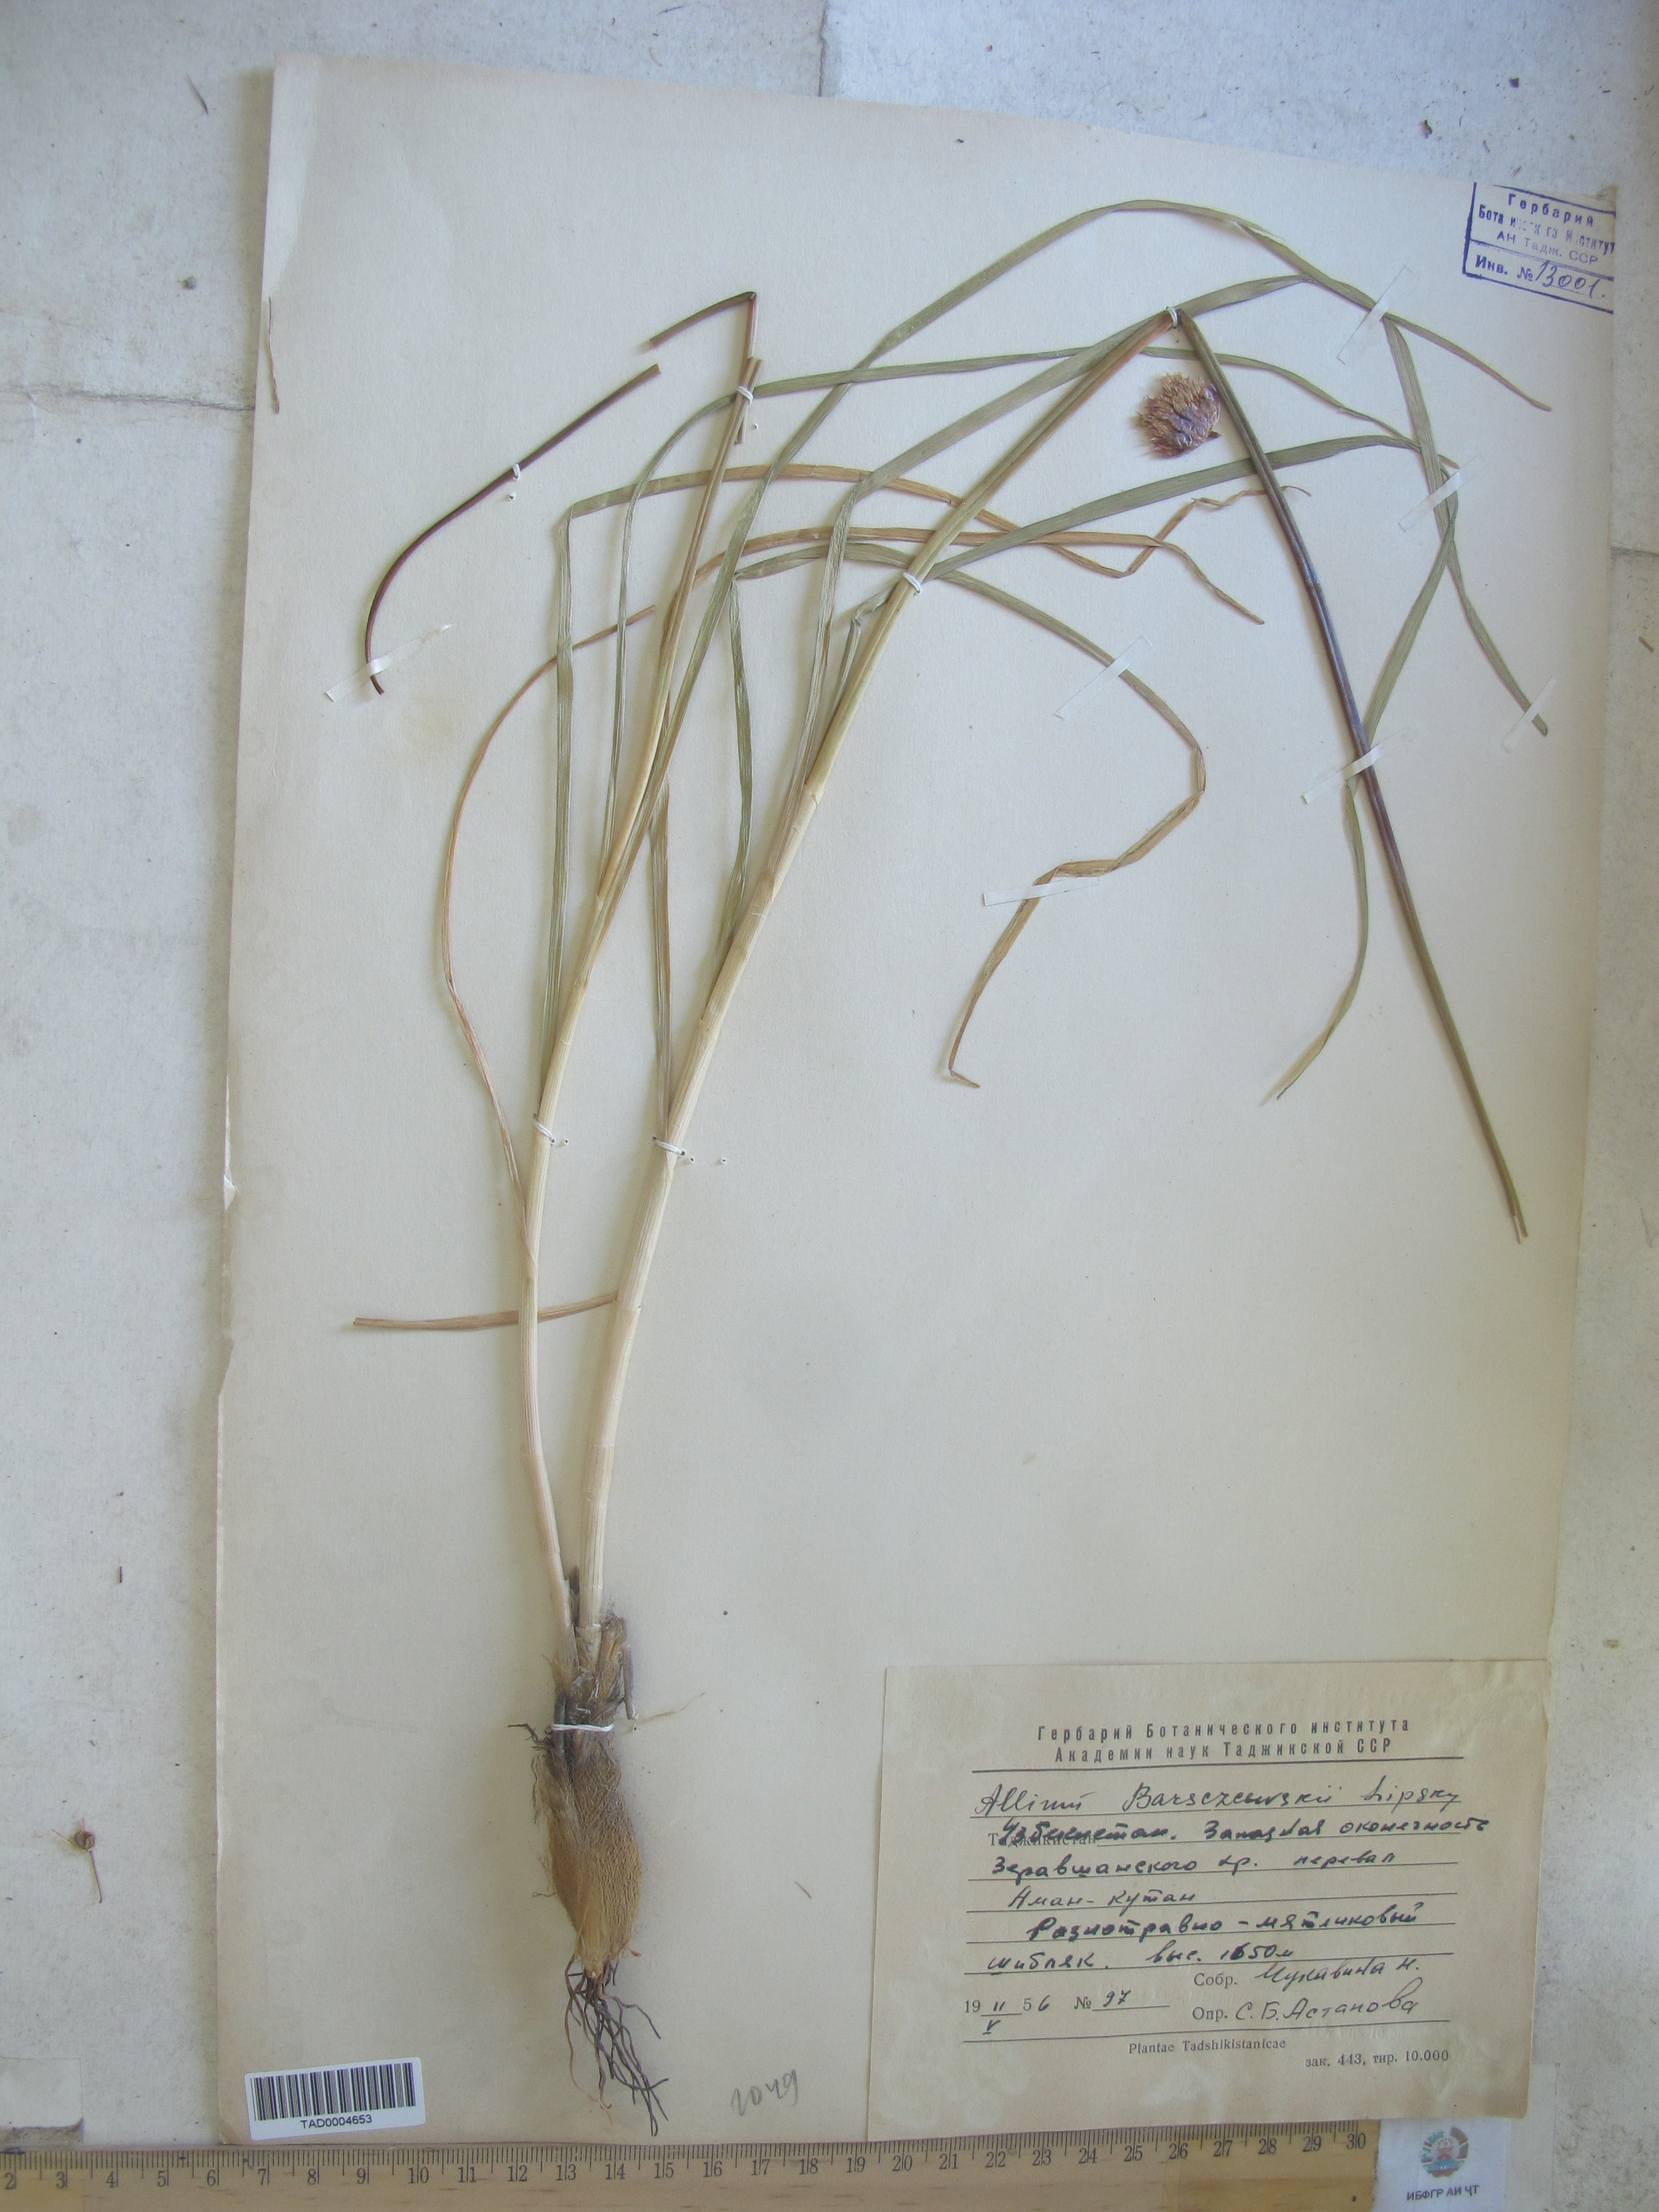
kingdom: Plantae
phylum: Tracheophyta
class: Liliopsida
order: Asparagales
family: Amaryllidaceae
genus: Allium
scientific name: Allium barsczewskii
